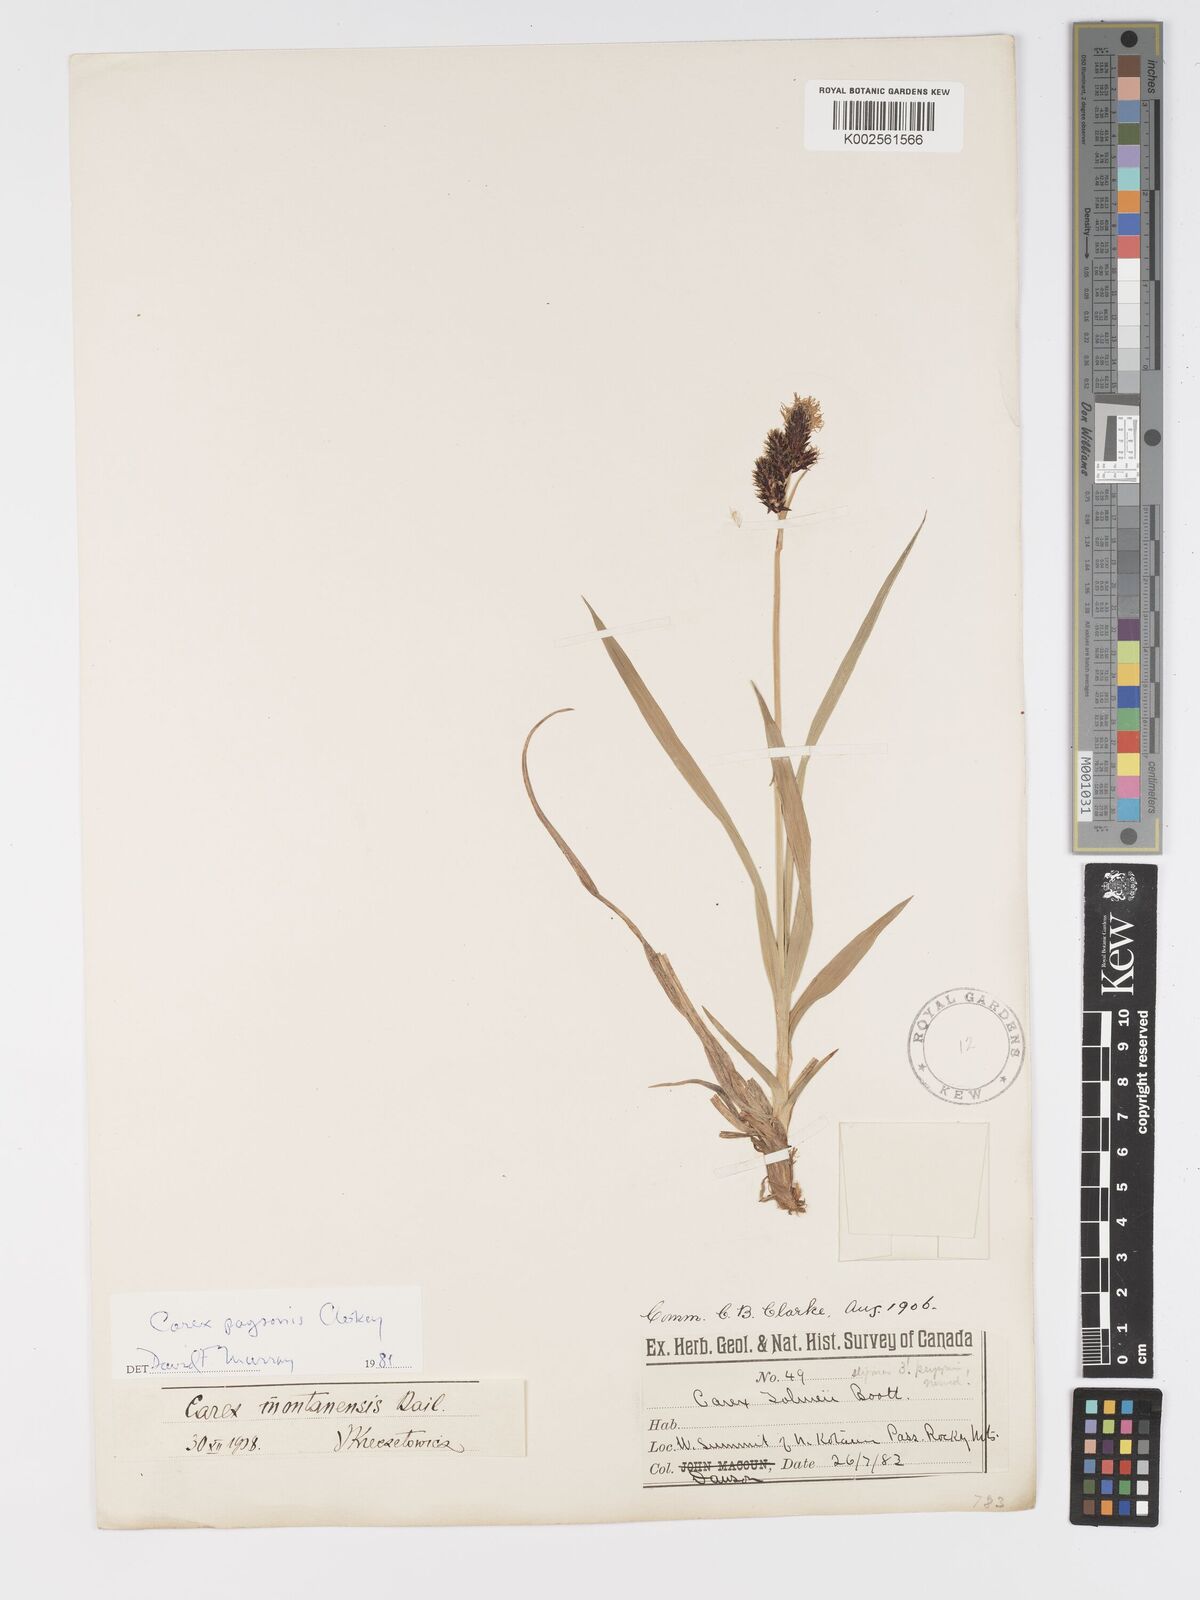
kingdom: Plantae
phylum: Tracheophyta
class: Liliopsida
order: Poales
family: Cyperaceae
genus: Carex
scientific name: Carex podocarpa
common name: Alpine sedge
